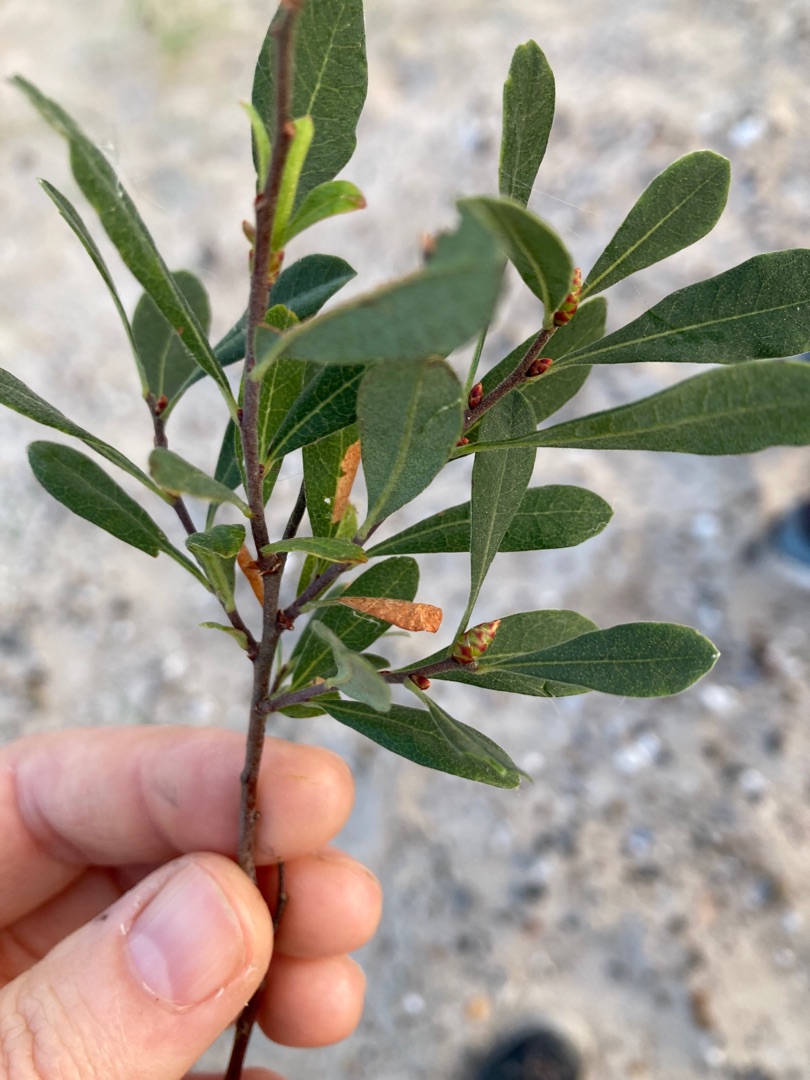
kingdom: Plantae
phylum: Tracheophyta
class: Magnoliopsida
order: Fagales
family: Myricaceae
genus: Myrica
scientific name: Myrica gale
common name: Pors
